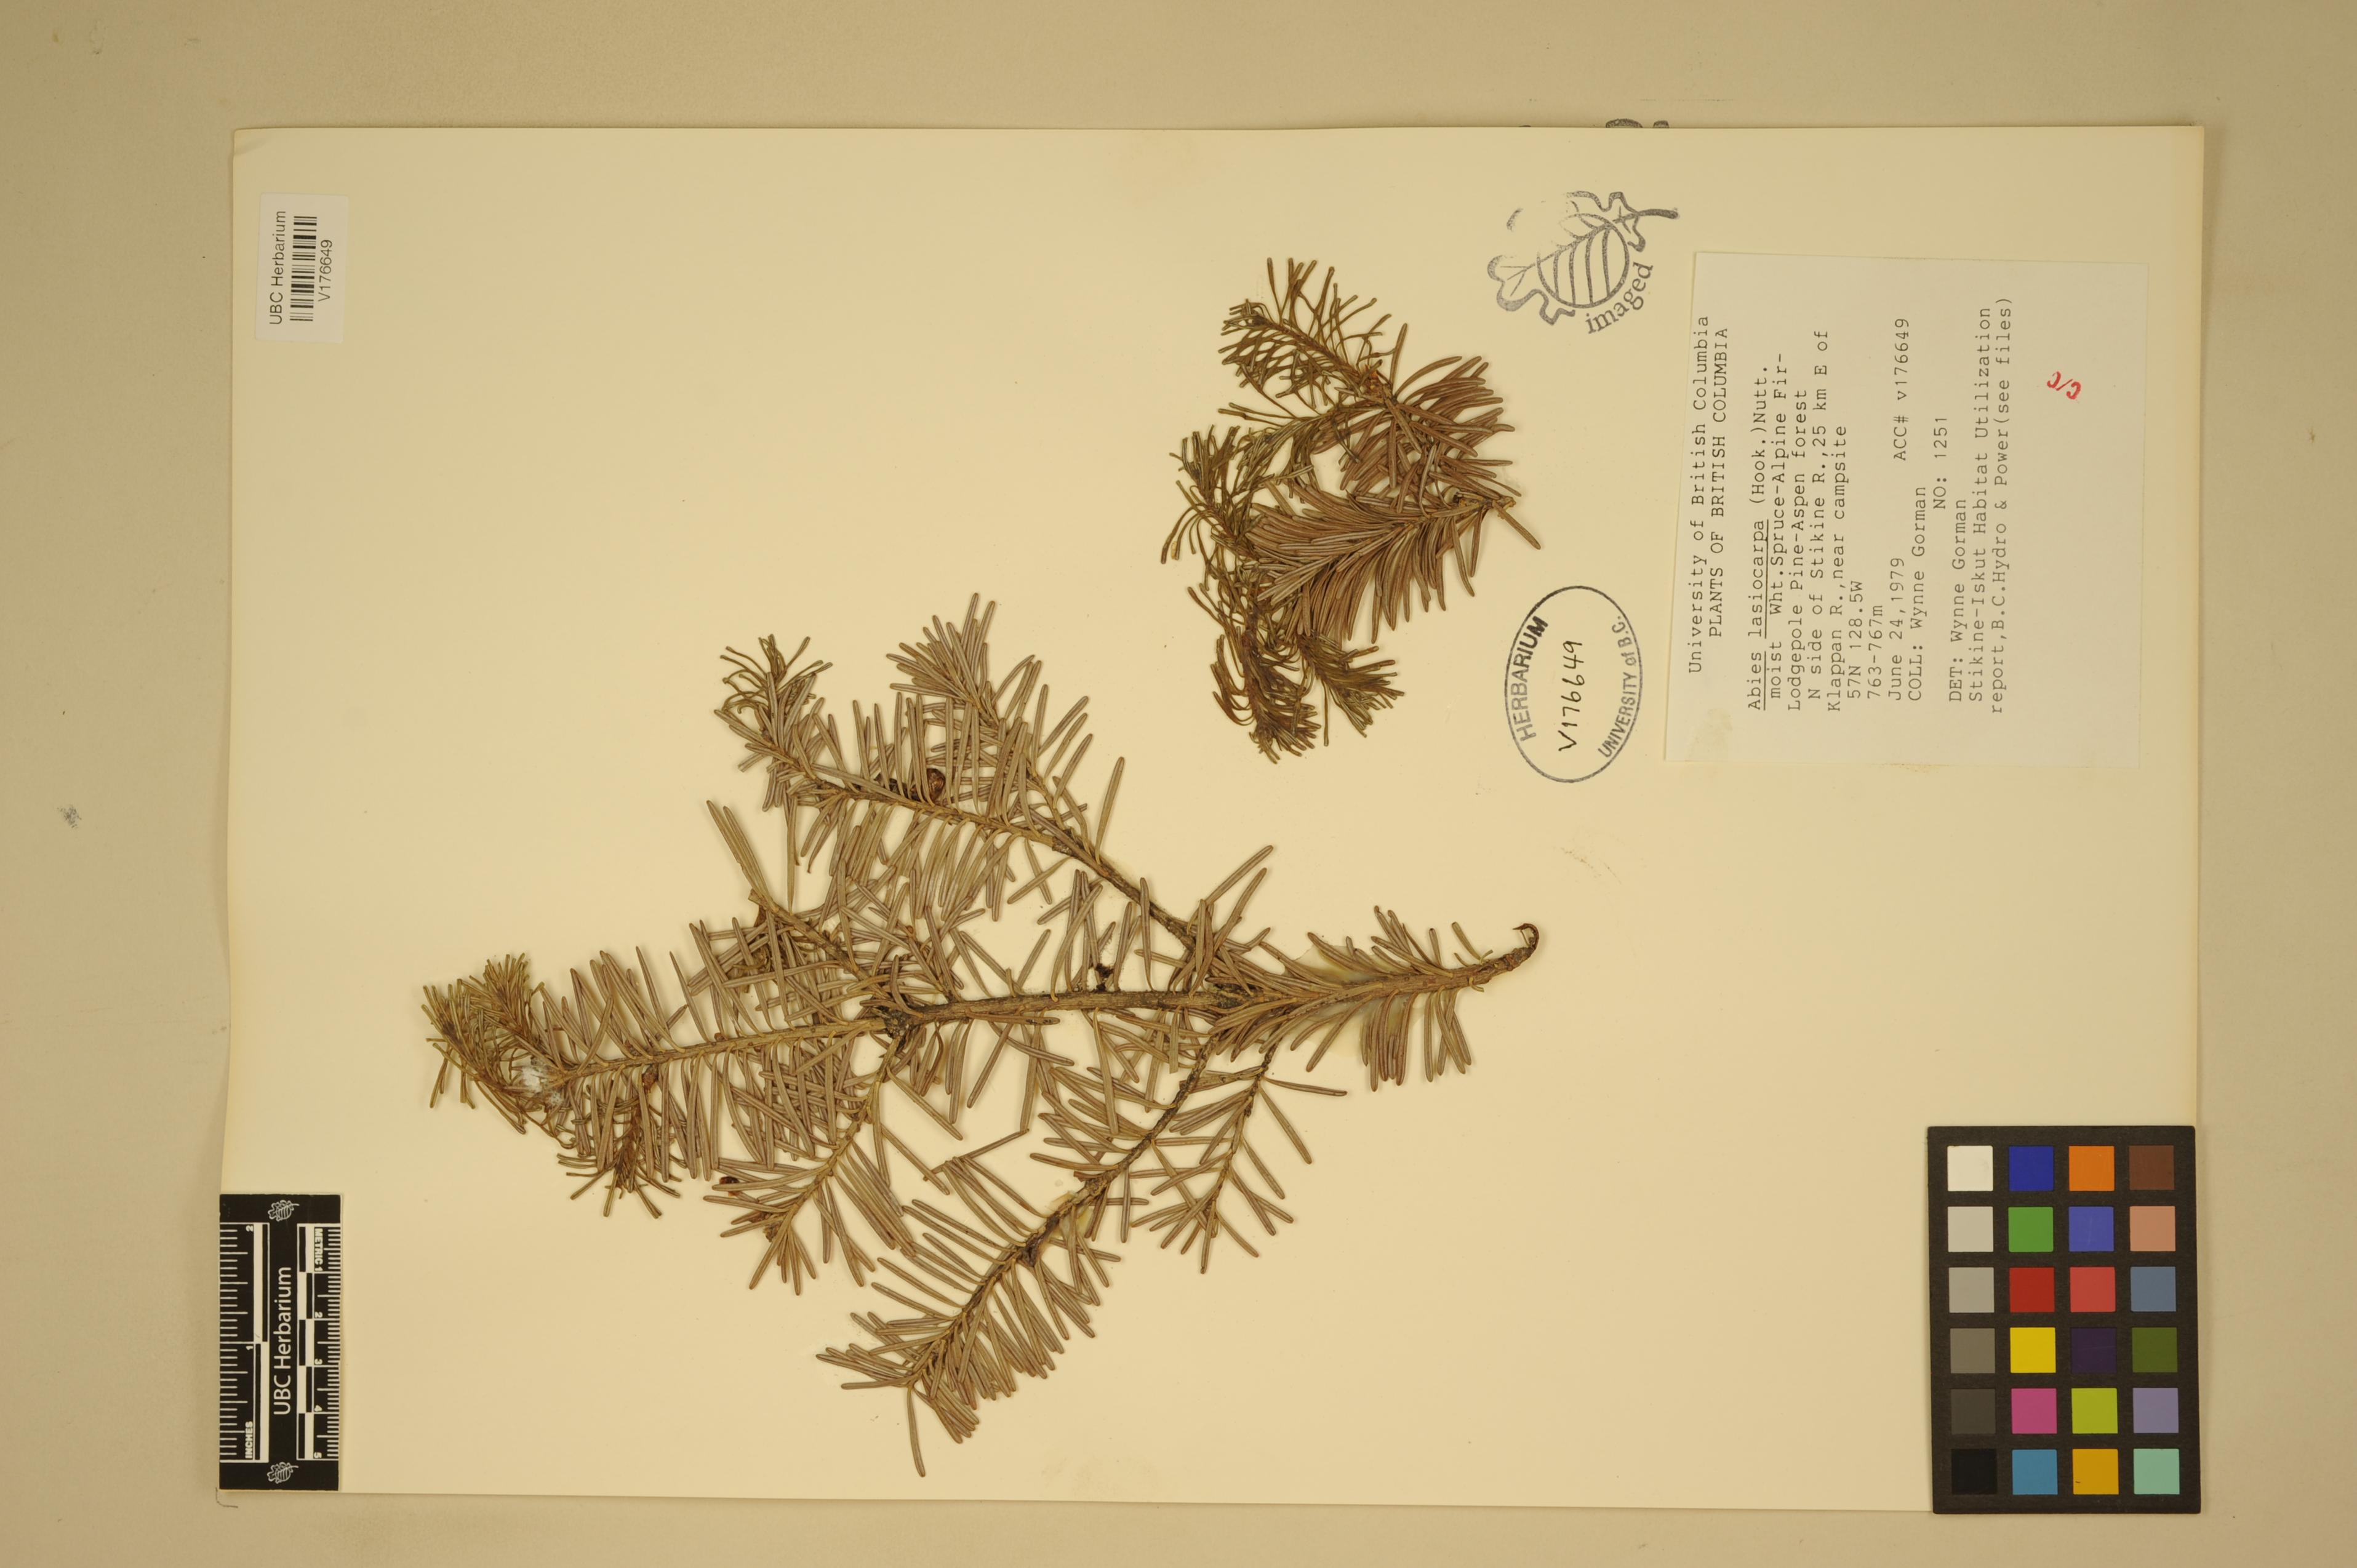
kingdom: Plantae
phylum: Tracheophyta
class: Pinopsida
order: Pinales
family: Pinaceae
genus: Abies
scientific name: Abies lasiocarpa
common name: Subalpine fir
